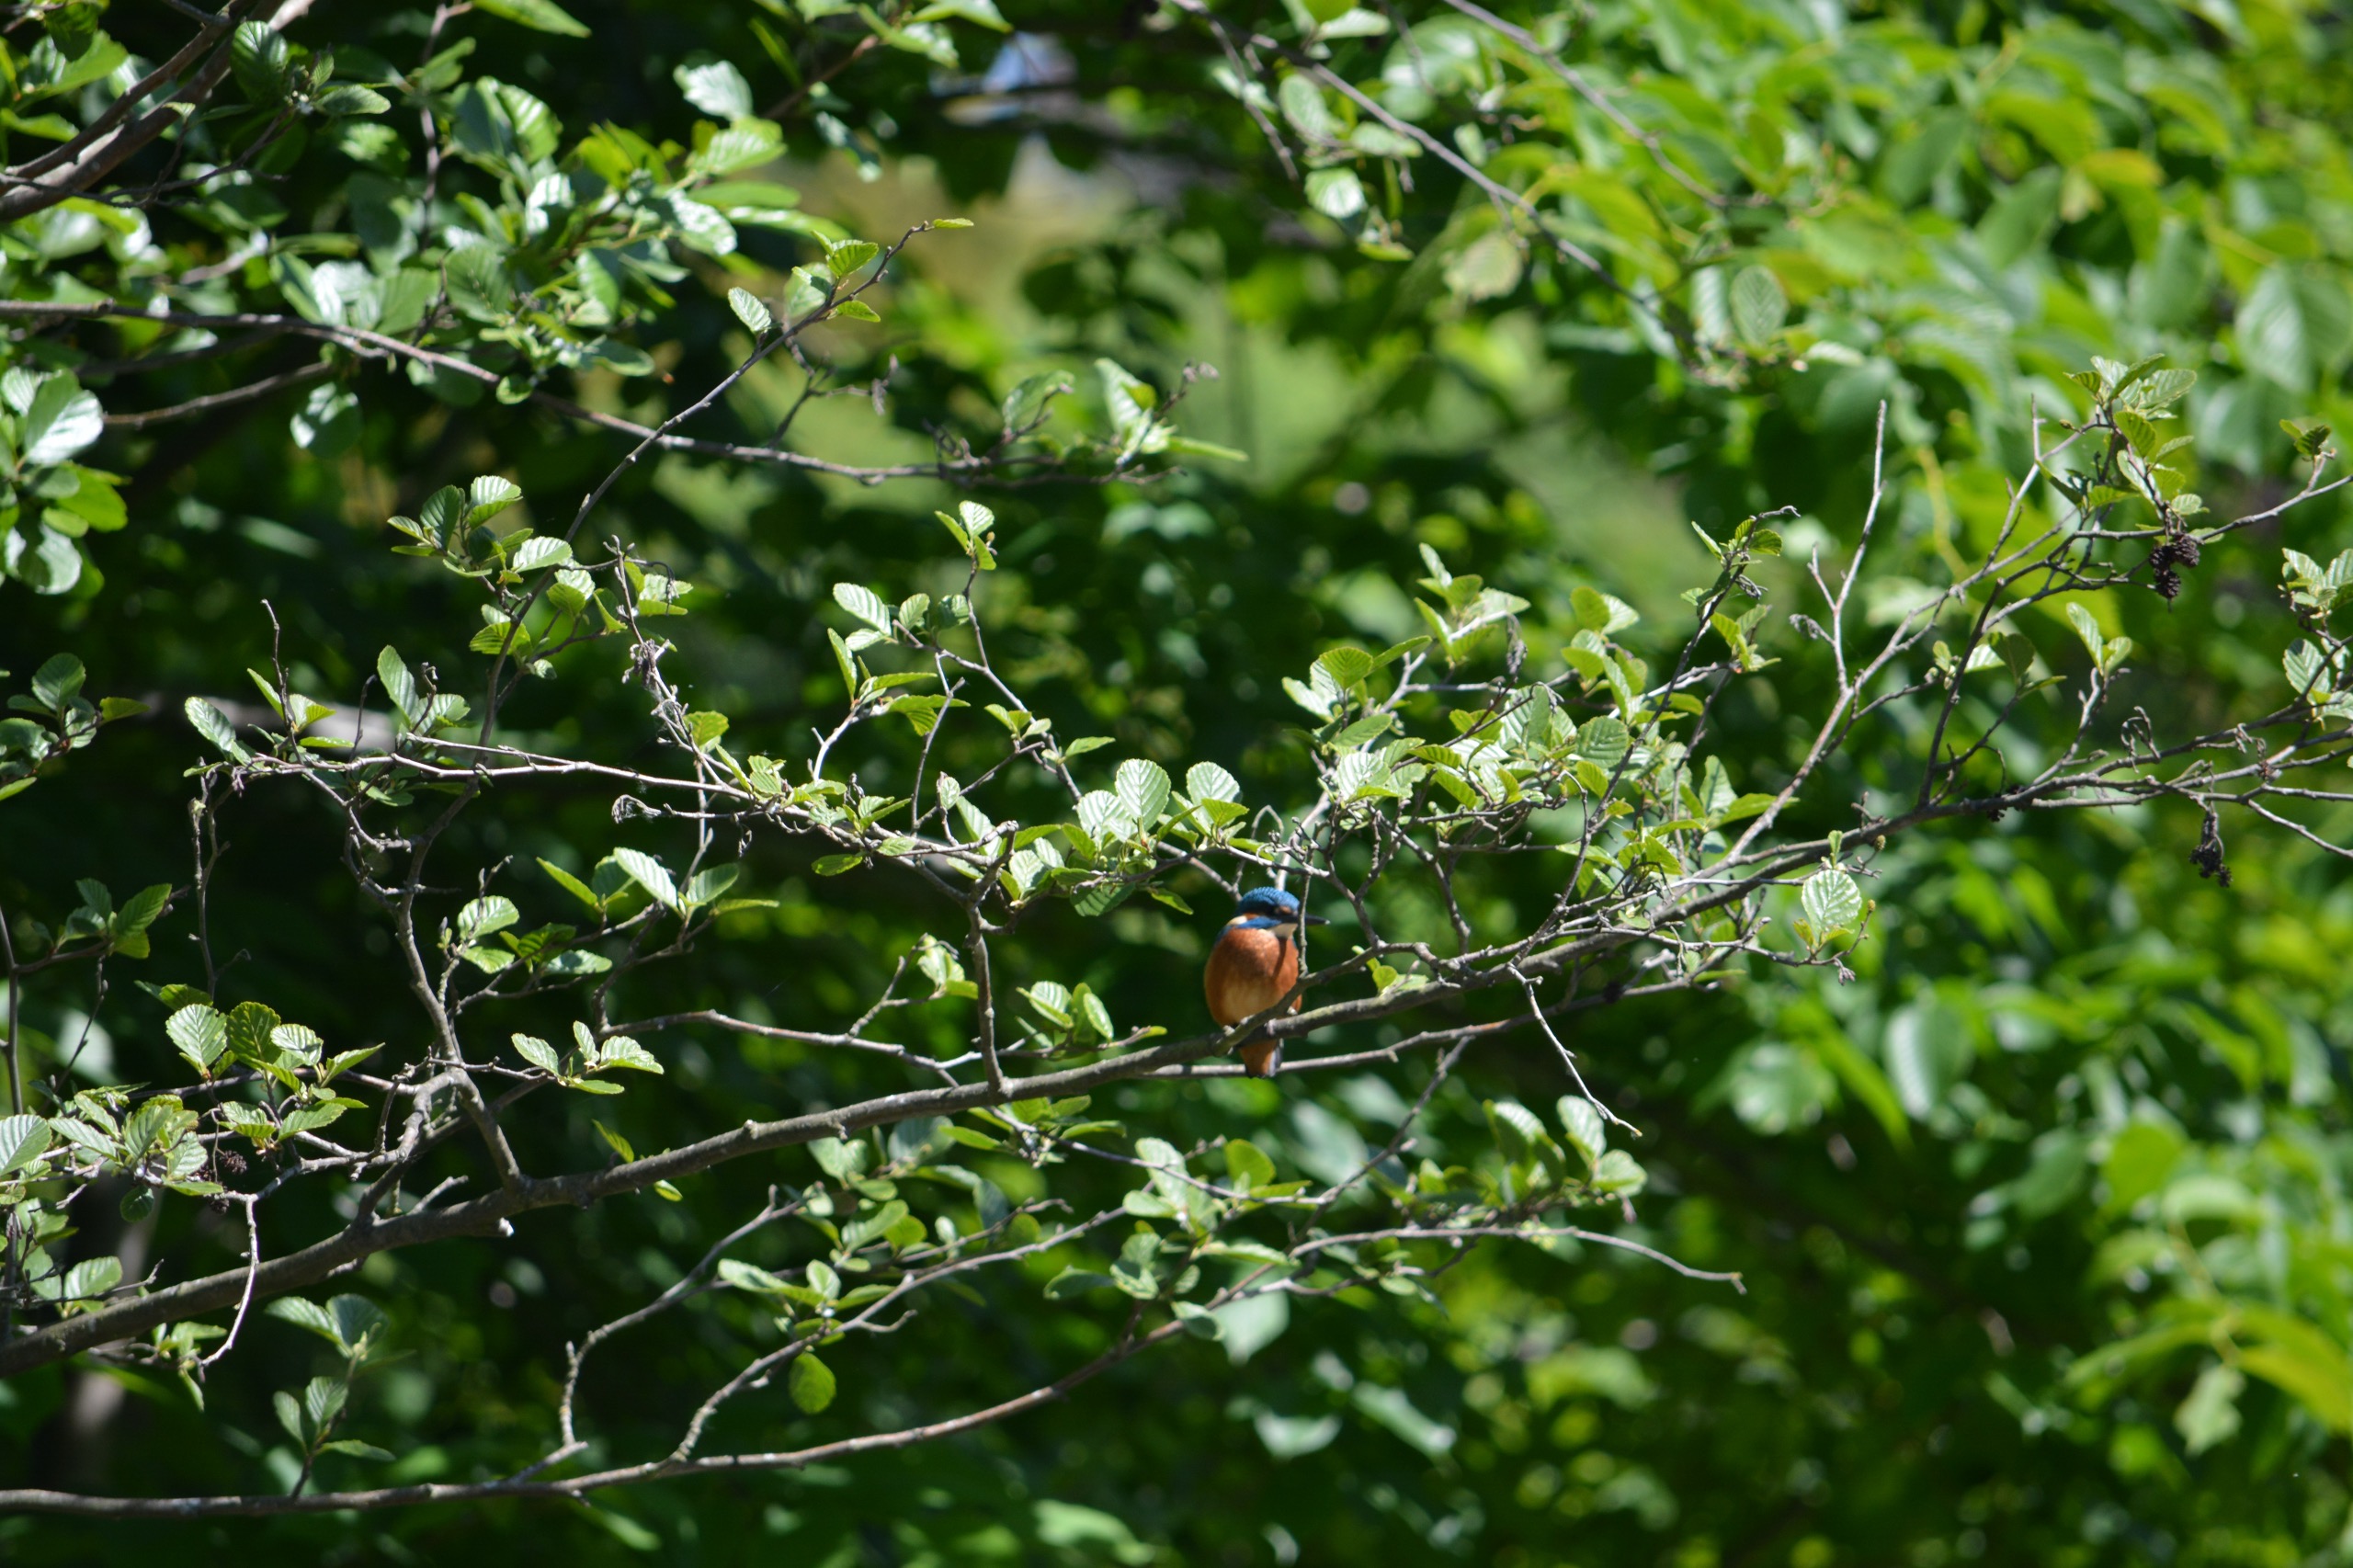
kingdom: Animalia
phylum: Chordata
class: Aves
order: Coraciiformes
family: Alcedinidae
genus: Alcedo
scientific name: Alcedo atthis
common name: Isfugl
